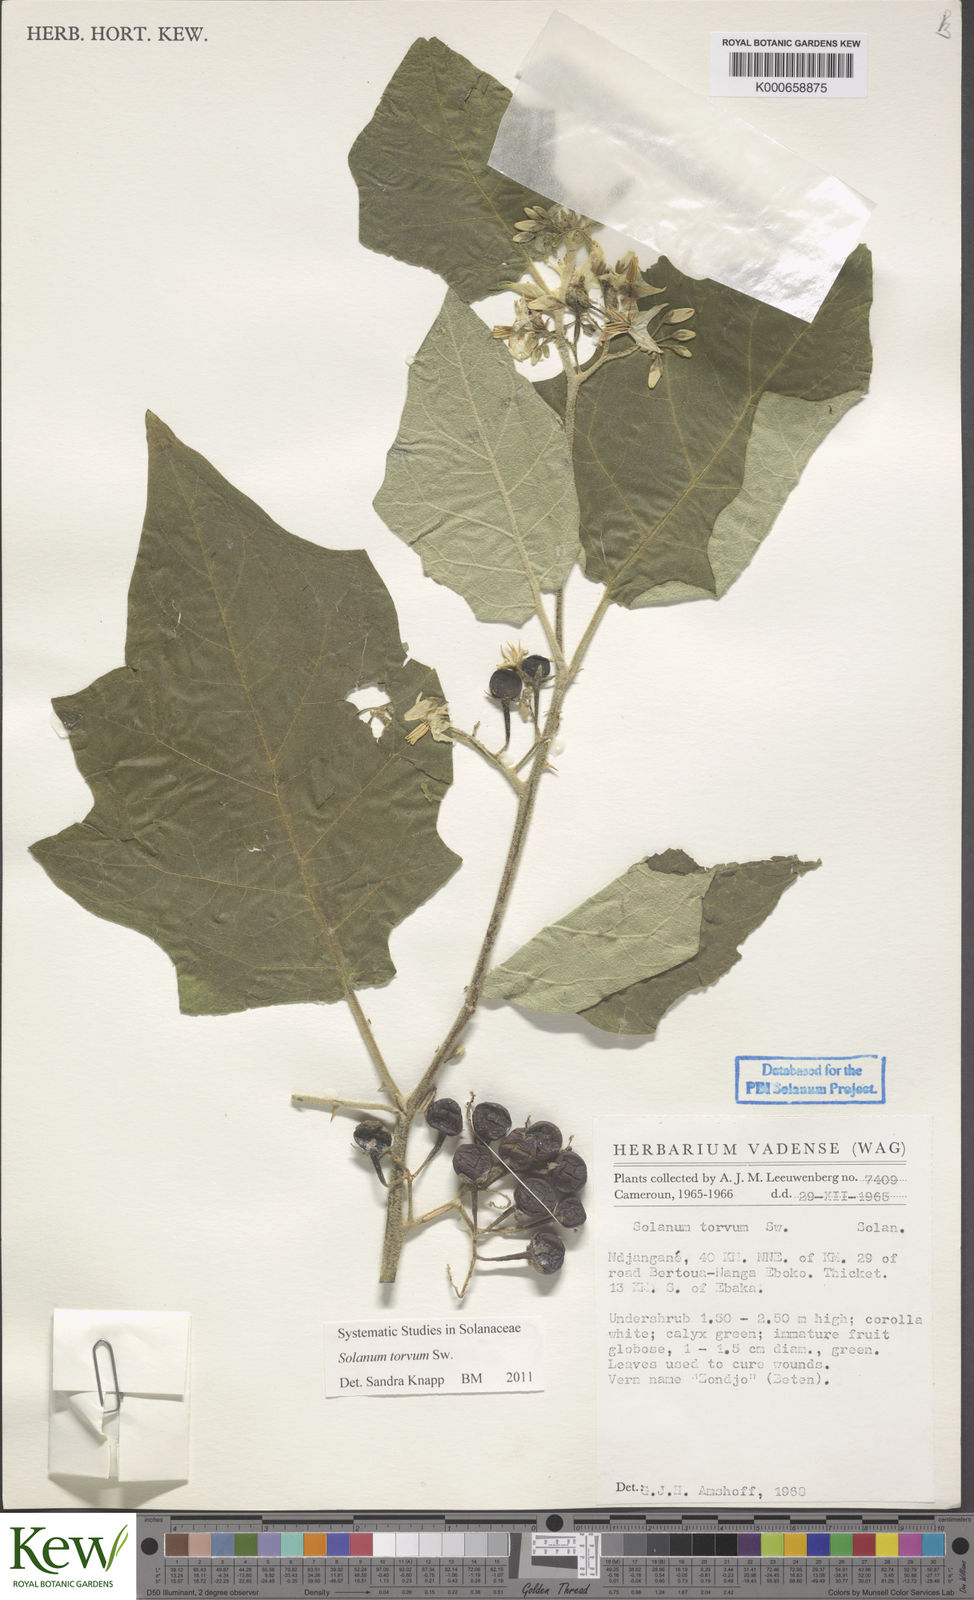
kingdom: Plantae
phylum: Tracheophyta
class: Magnoliopsida
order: Solanales
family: Solanaceae
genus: Solanum
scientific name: Solanum torvum
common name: Turkey berry
